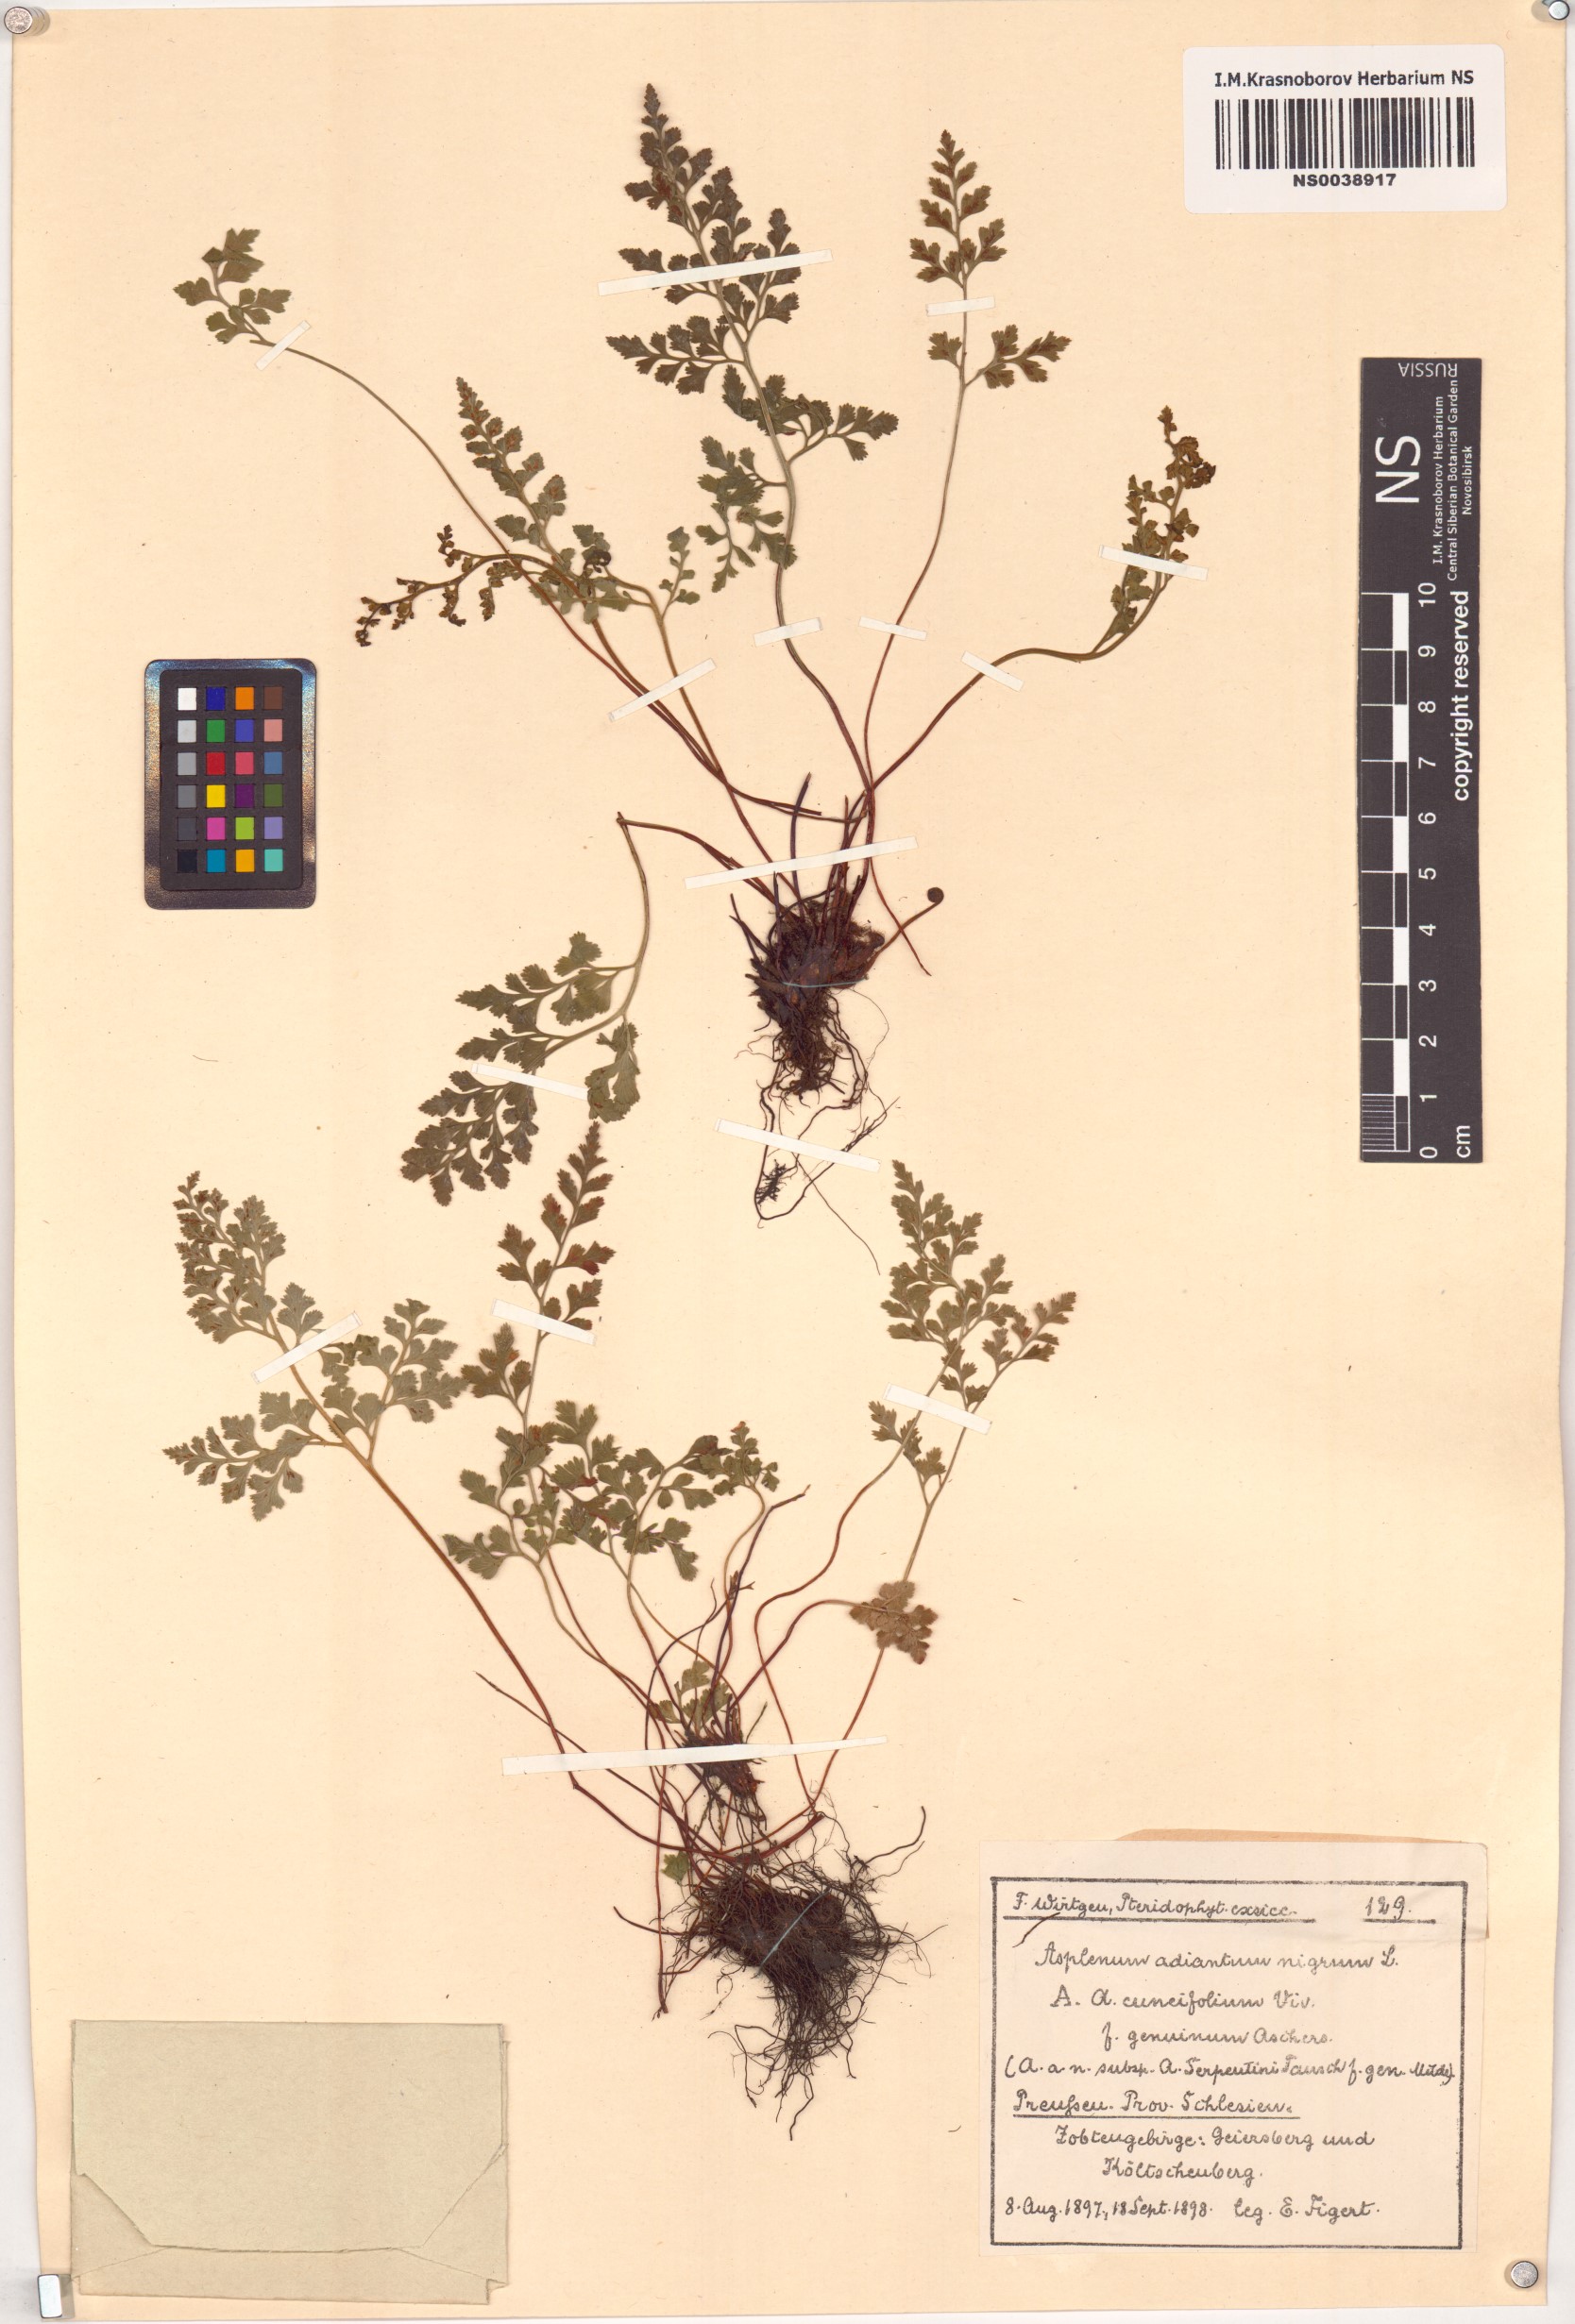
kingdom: Plantae
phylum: Tracheophyta
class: Polypodiopsida
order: Polypodiales
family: Aspleniaceae
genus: Asplenium
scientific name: Asplenium adiantum-nigrum
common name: Black spleenwort
